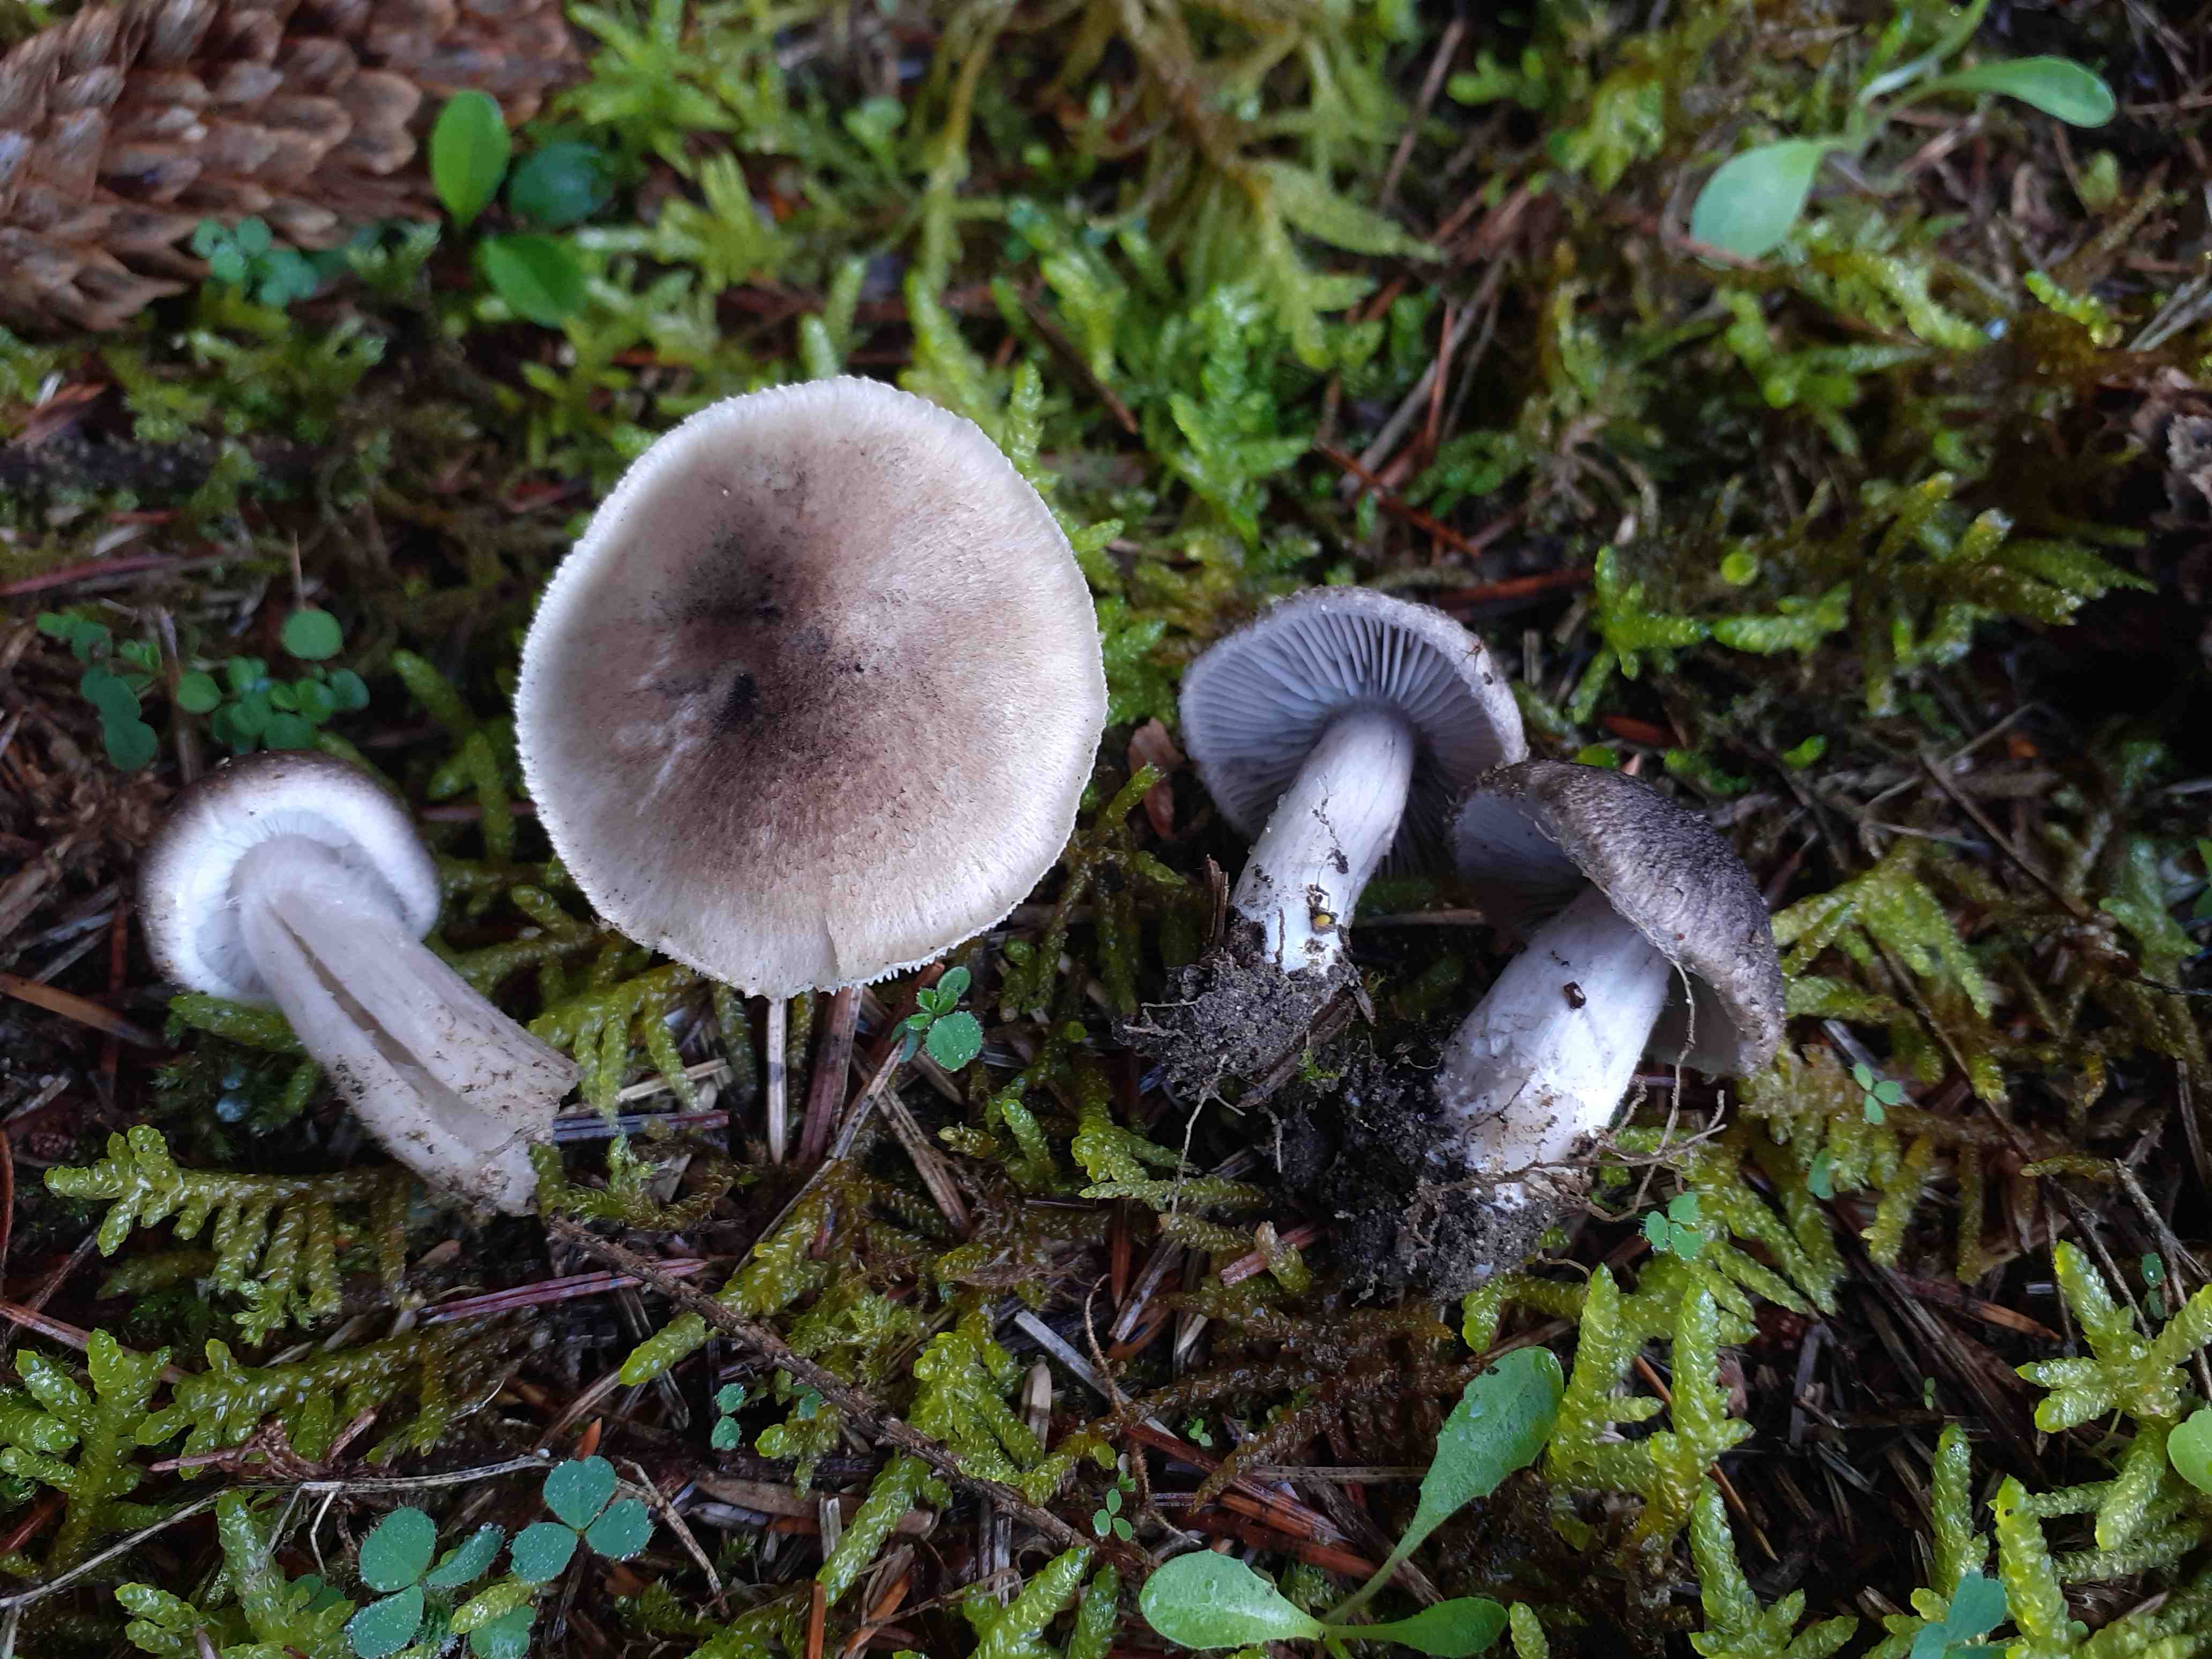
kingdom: Fungi
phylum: Basidiomycota
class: Agaricomycetes
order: Agaricales
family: Tricholomataceae
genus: Tricholoma
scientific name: Tricholoma argyraceum
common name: slør-ridderhat
